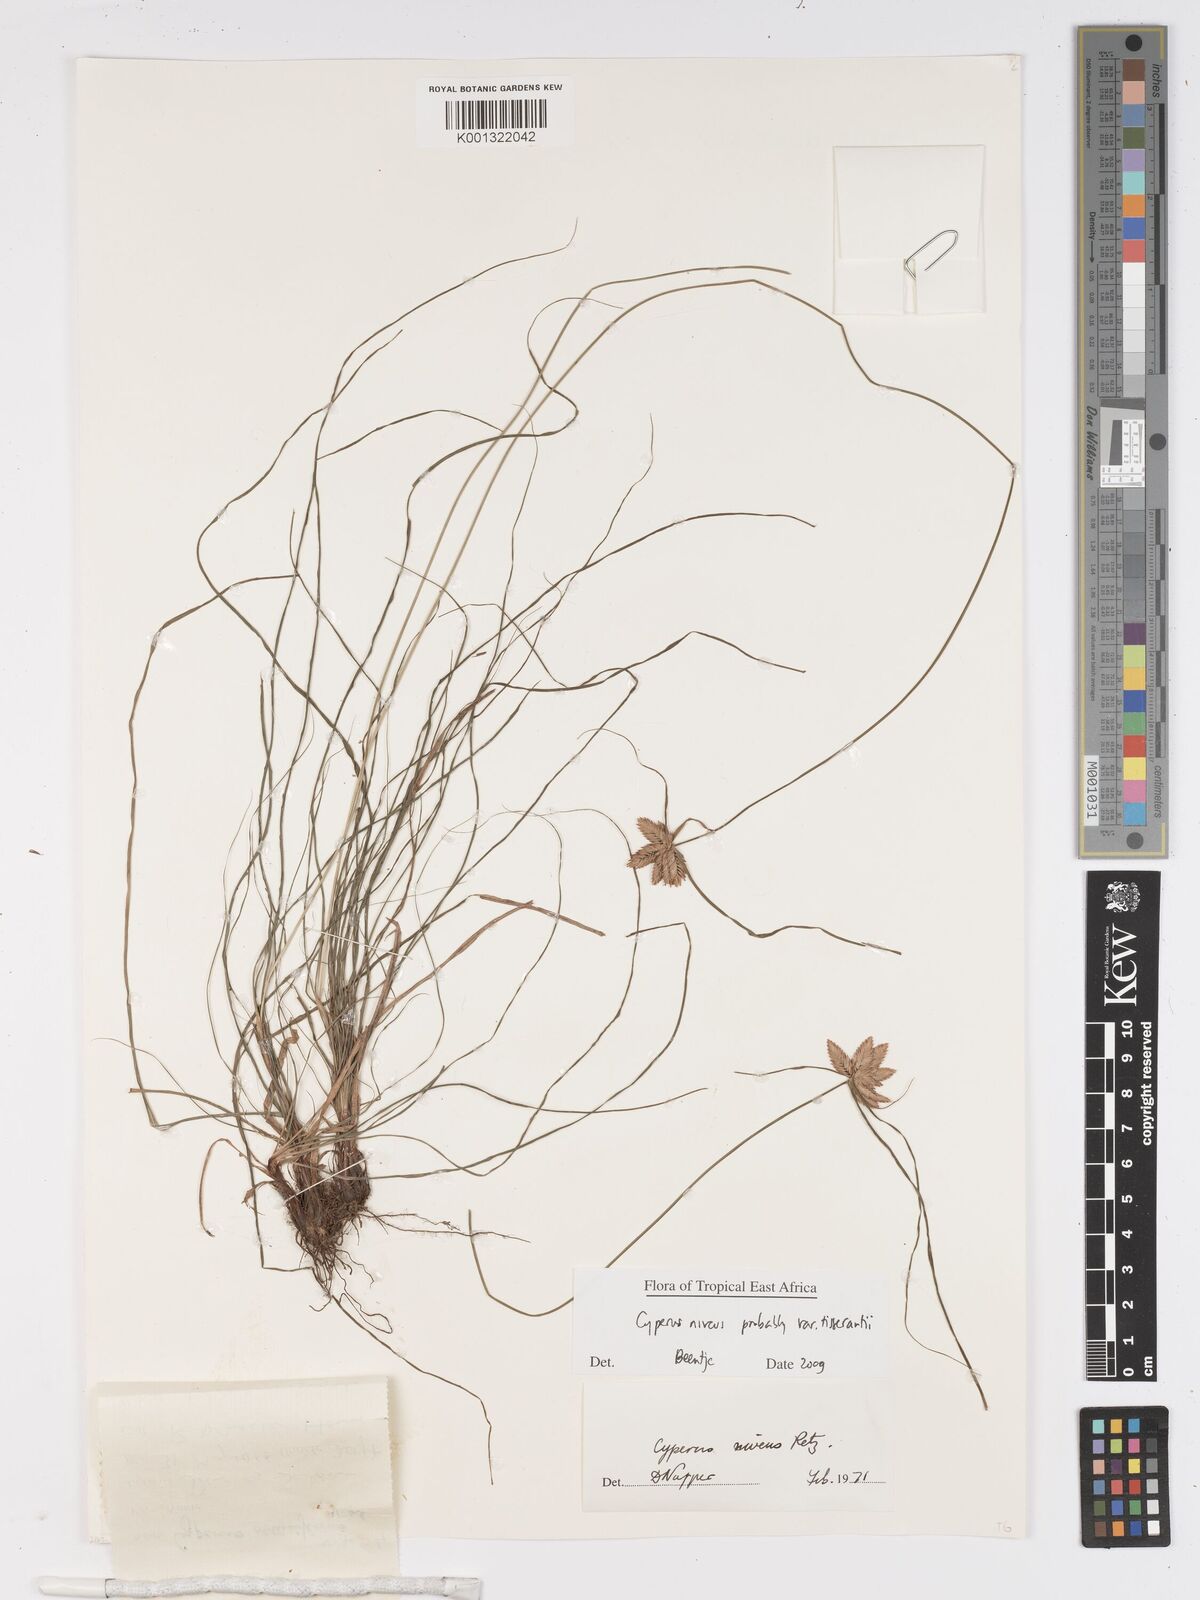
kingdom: Plantae
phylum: Tracheophyta
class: Liliopsida
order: Poales
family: Cyperaceae
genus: Cyperus
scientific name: Cyperus niveus
